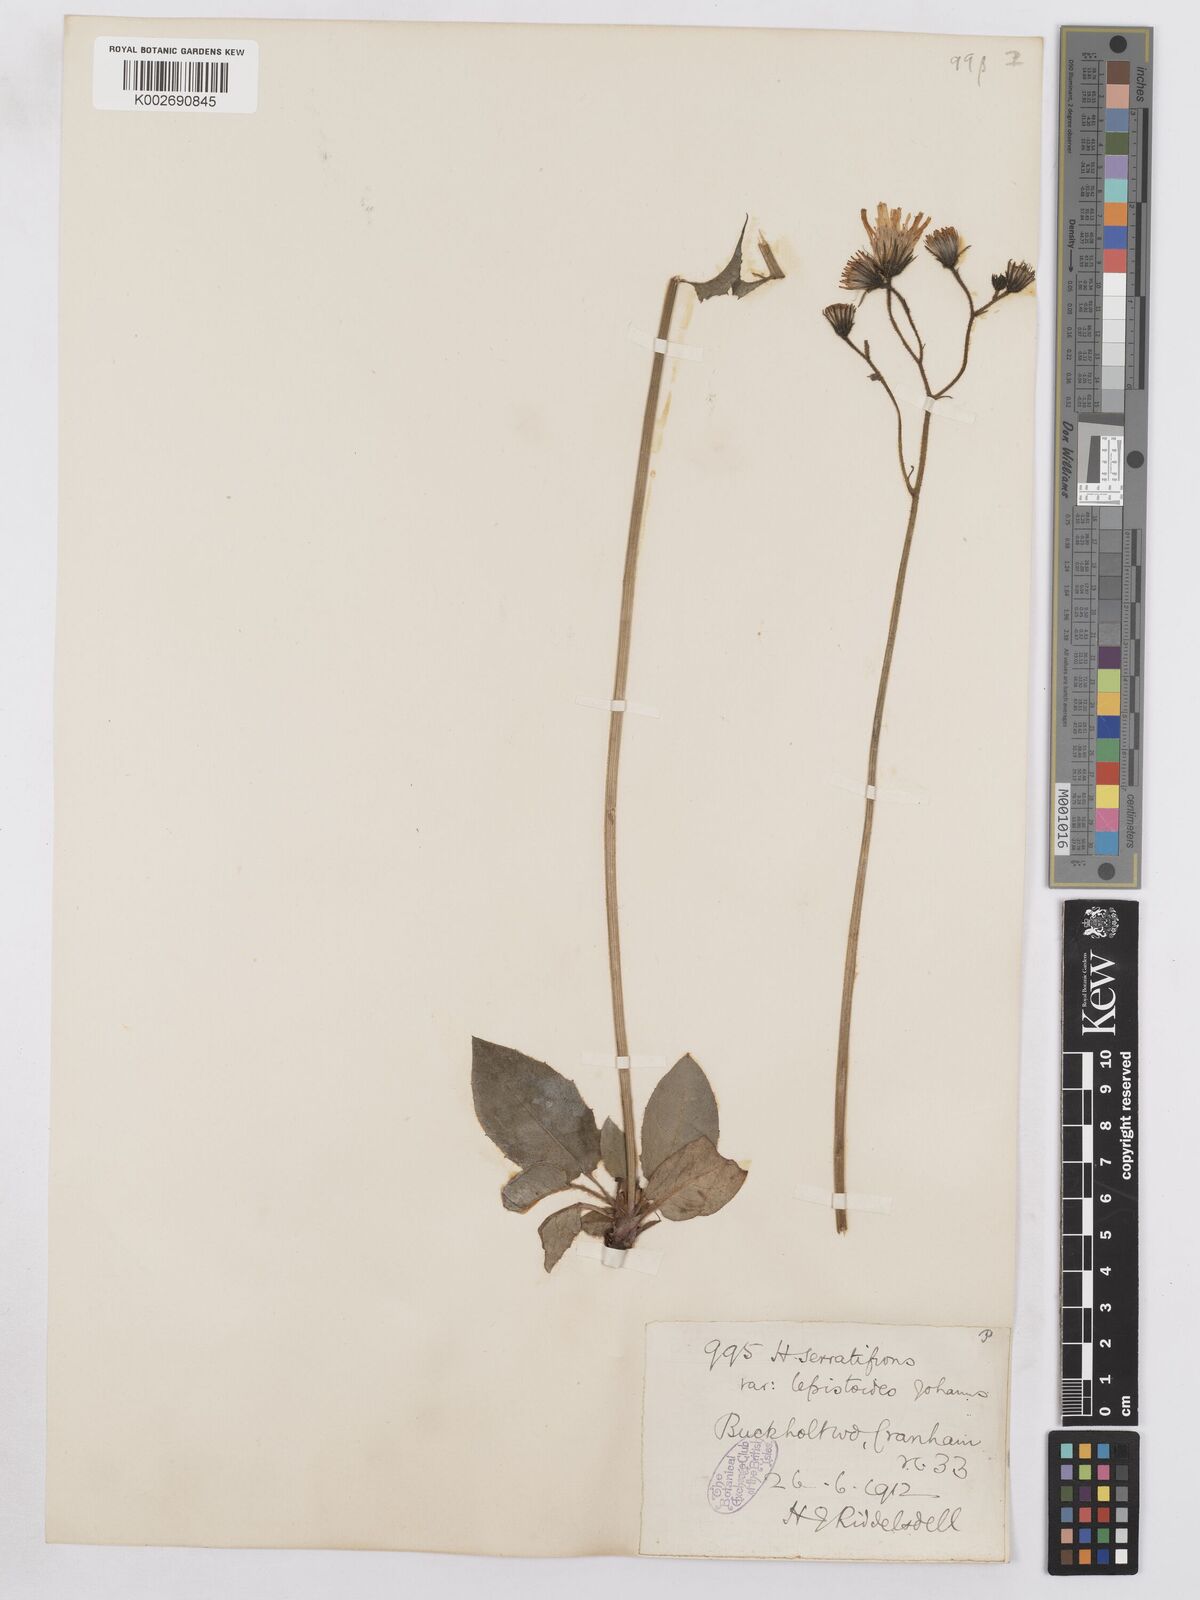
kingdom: Plantae
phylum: Tracheophyta
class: Magnoliopsida
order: Asterales
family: Asteraceae
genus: Hieracium
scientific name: Hieracium murorum
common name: Wall hawkweed
